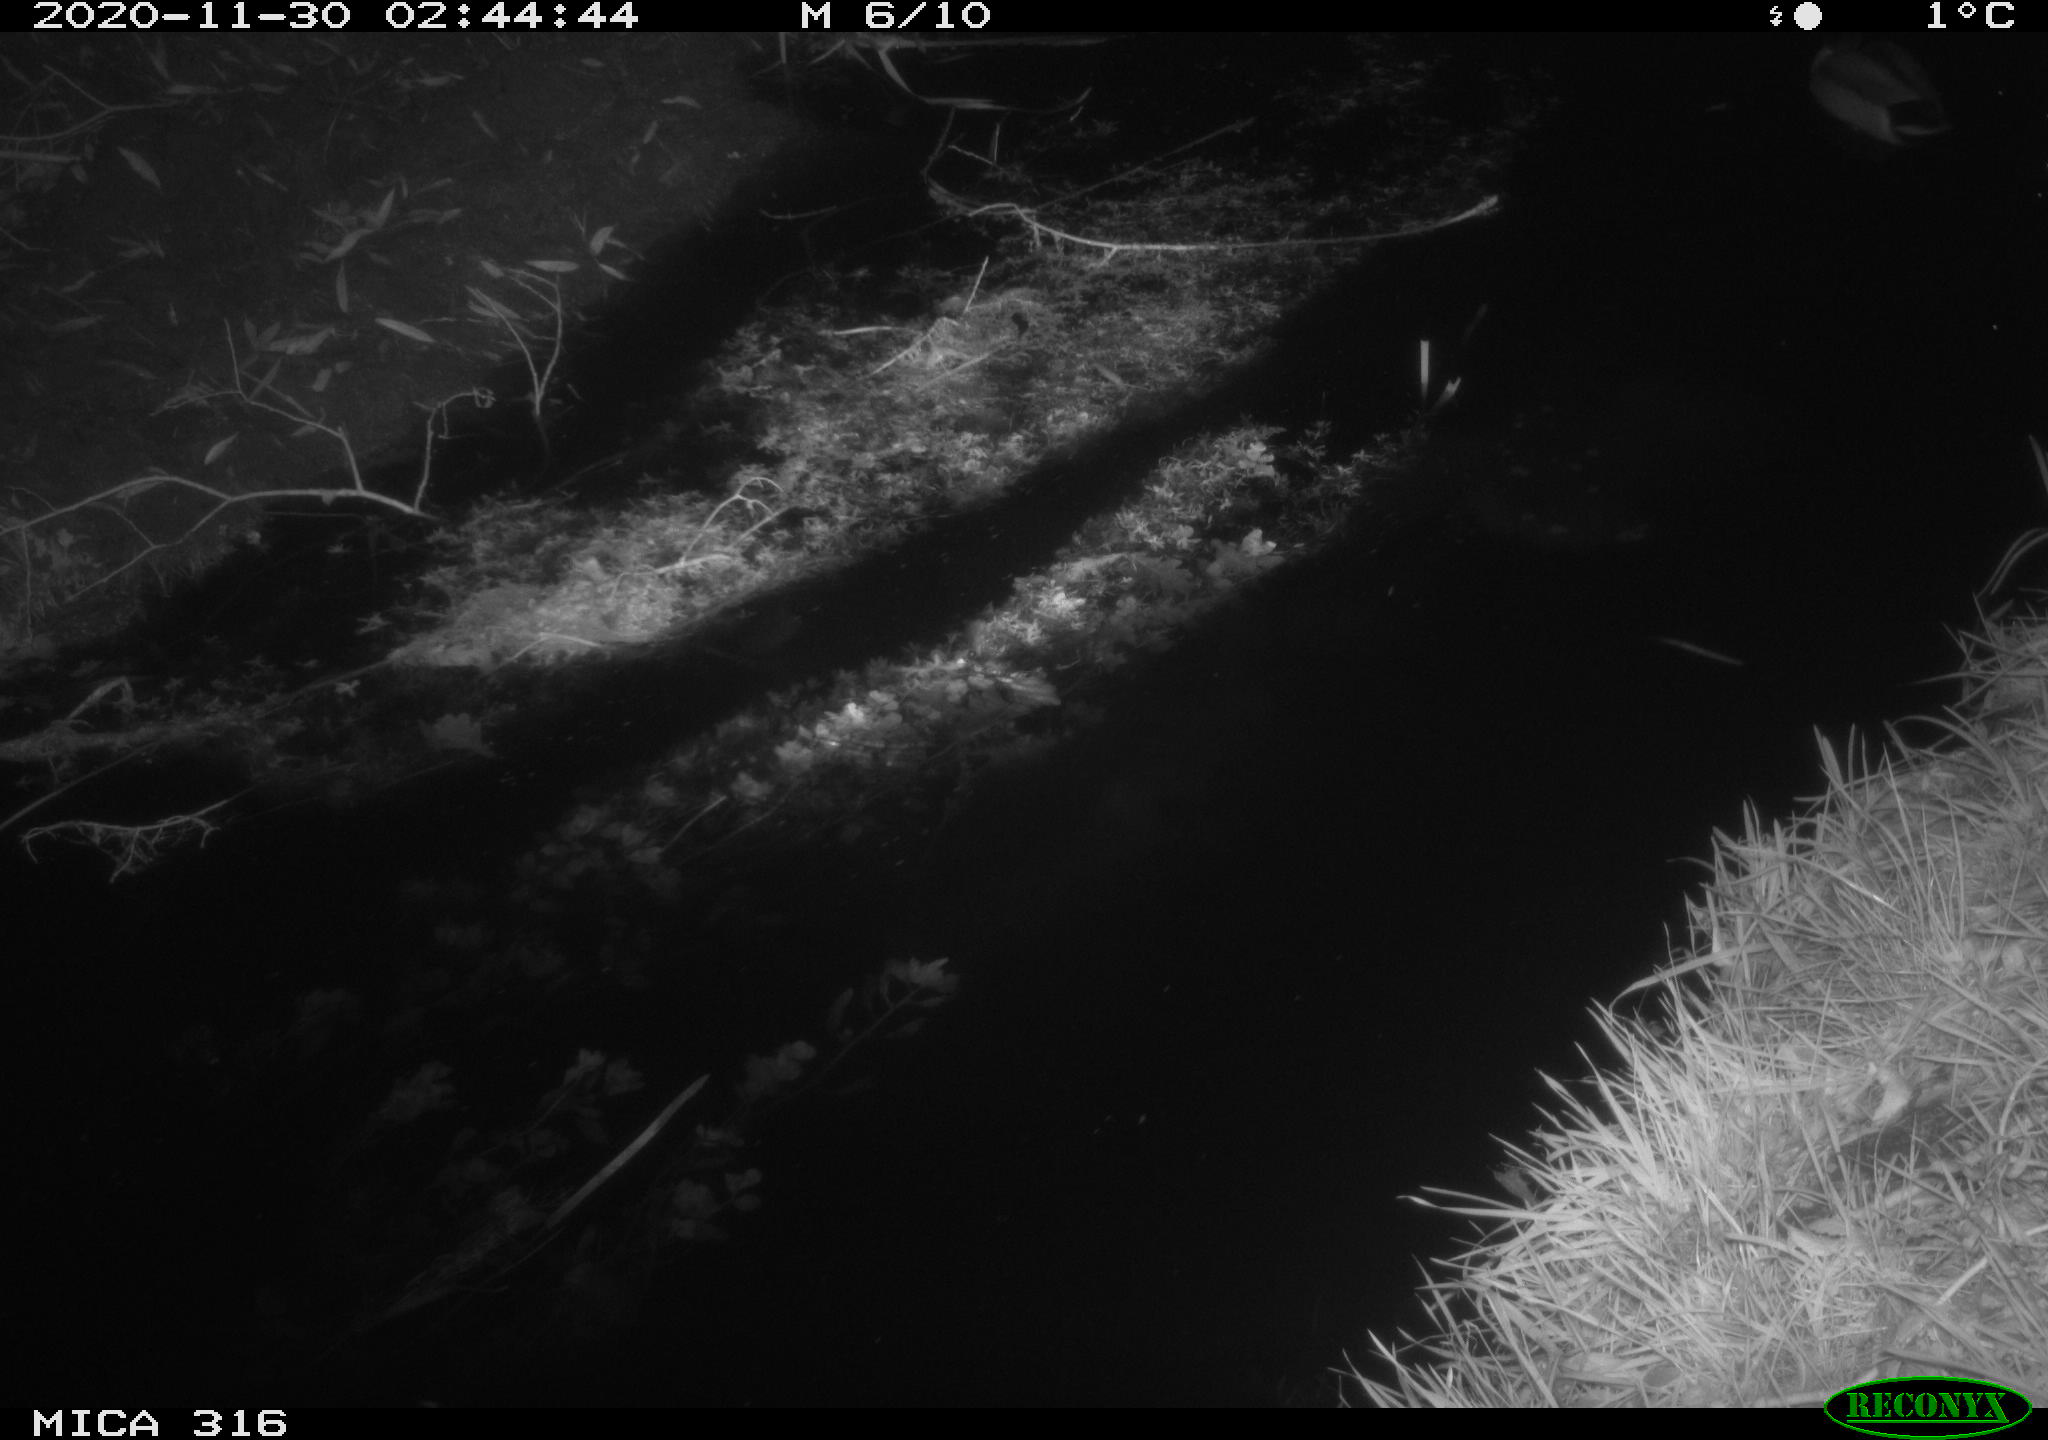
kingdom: Animalia
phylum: Chordata
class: Aves
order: Gruiformes
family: Rallidae
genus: Gallinula
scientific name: Gallinula chloropus
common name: Common moorhen
